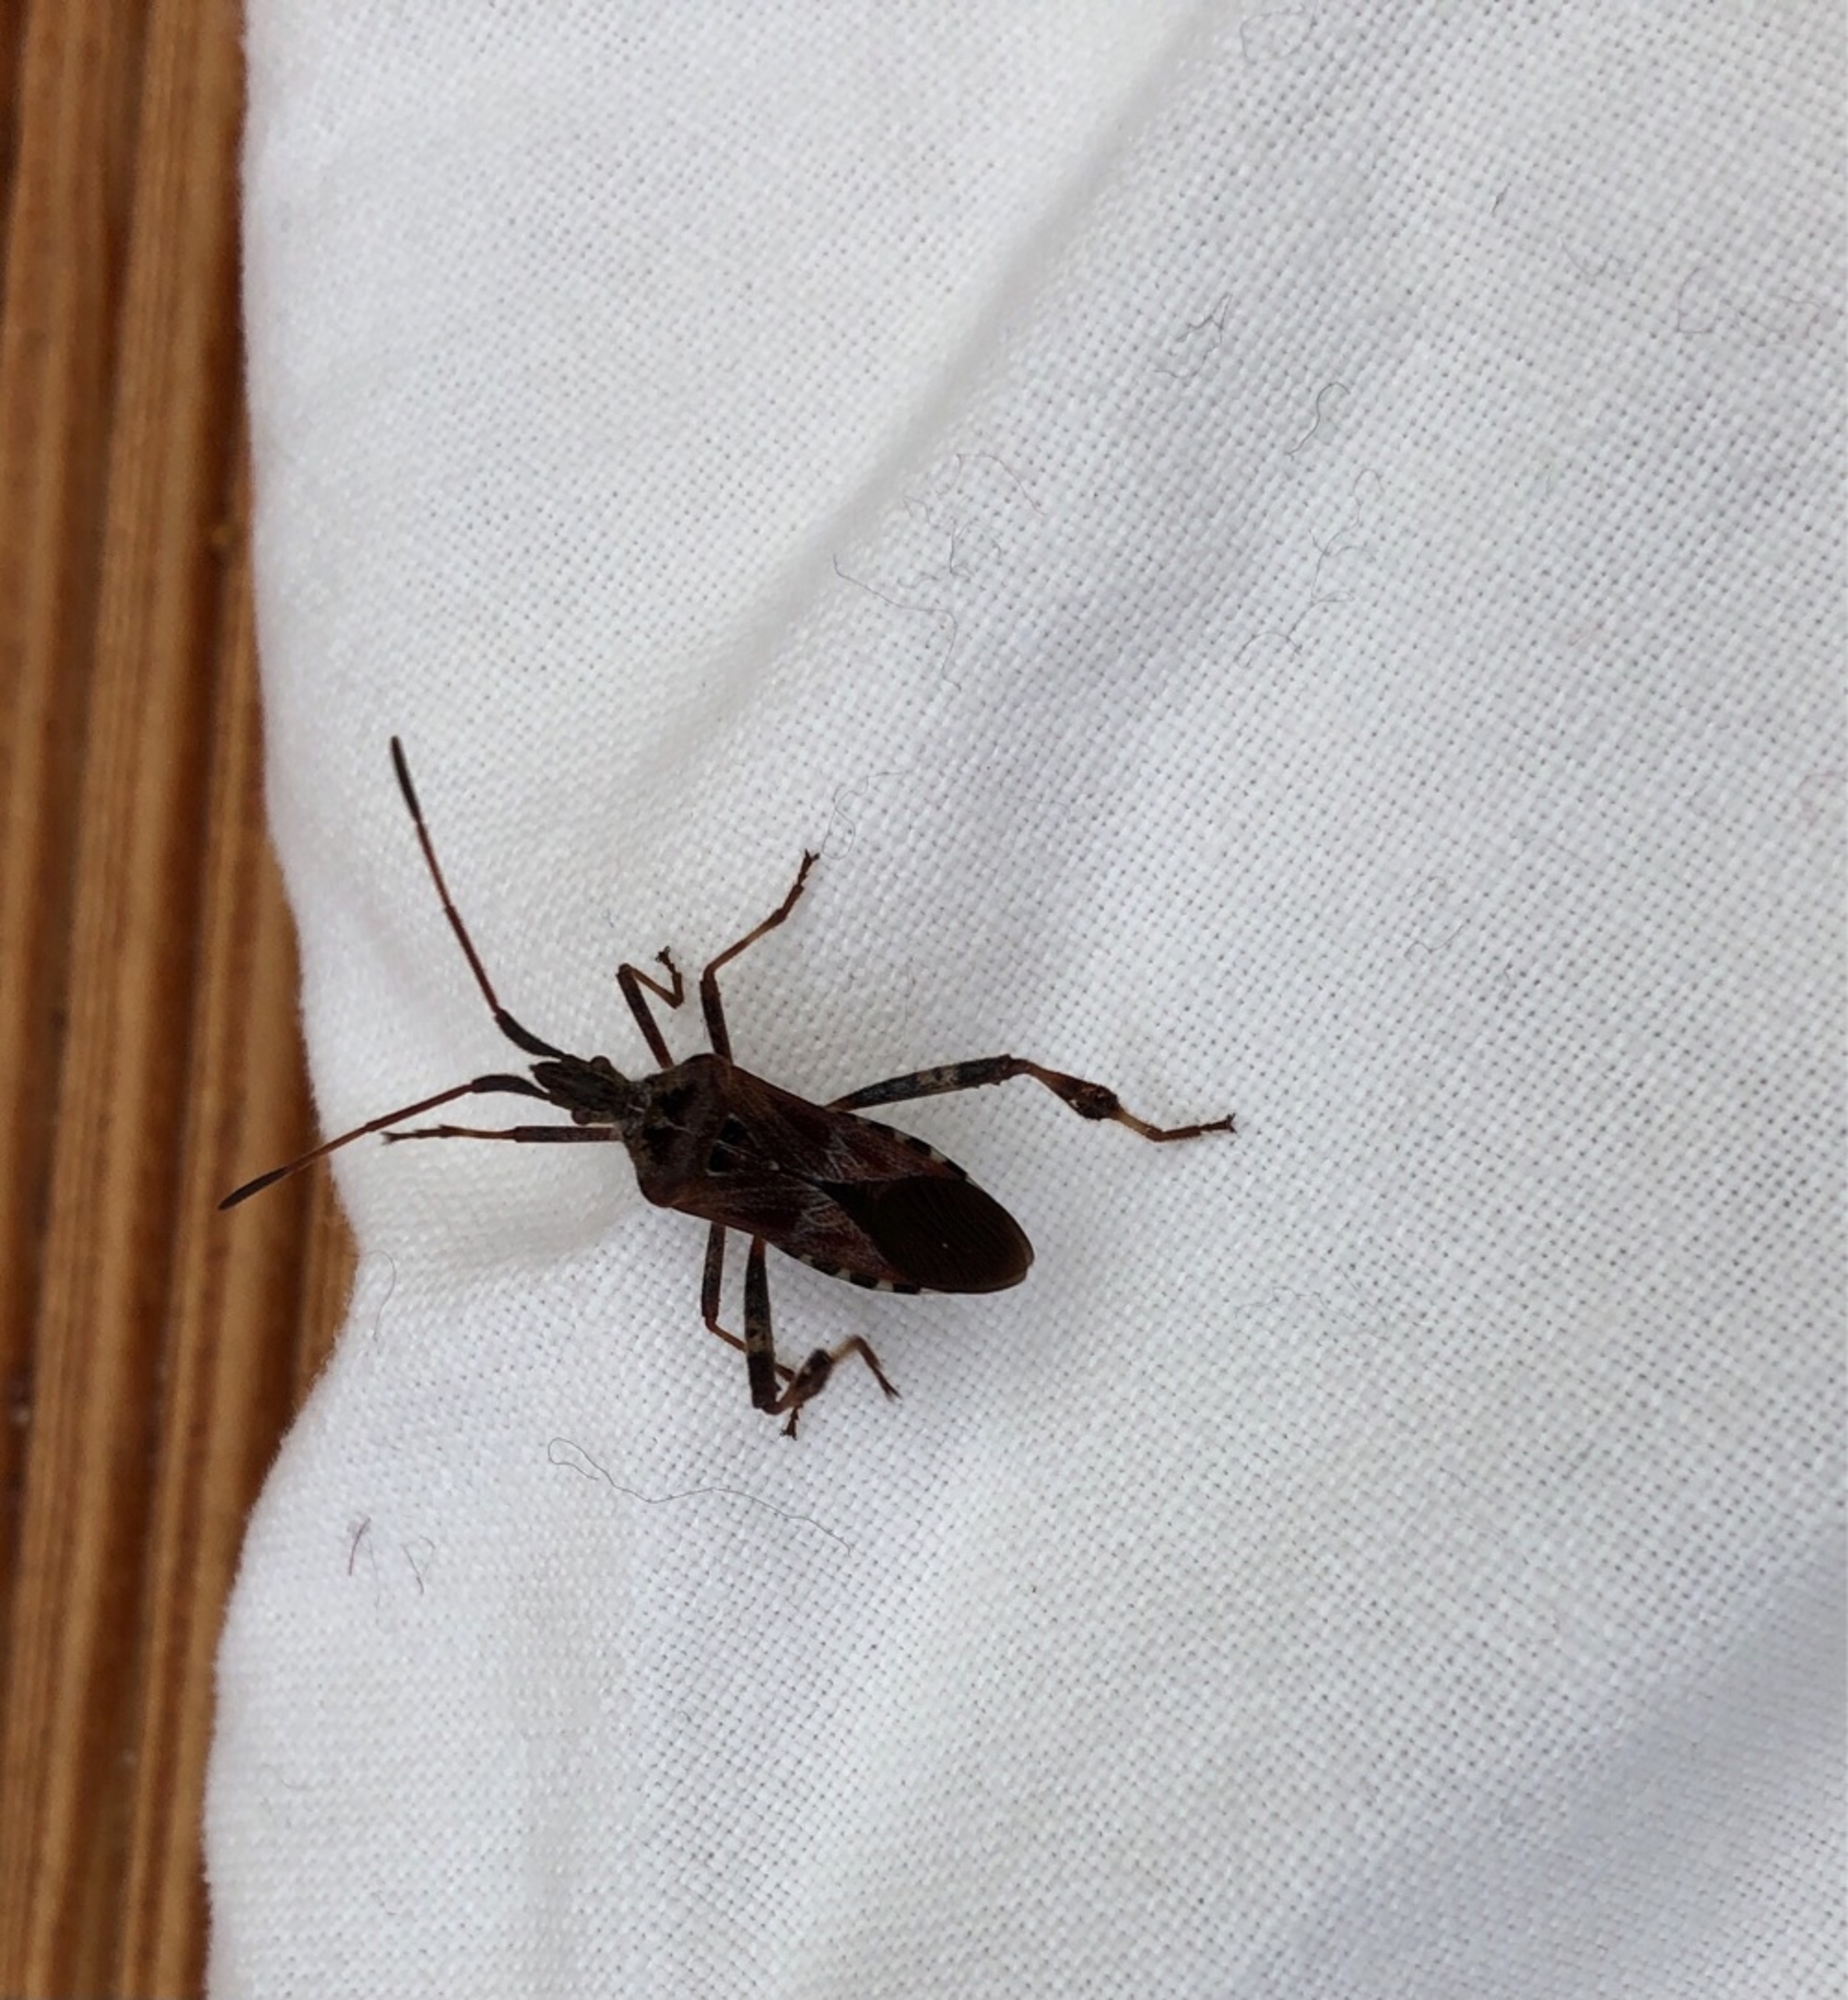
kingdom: Animalia
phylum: Arthropoda
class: Insecta
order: Hemiptera
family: Coreidae
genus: Leptoglossus
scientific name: Leptoglossus occidentalis
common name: Amerikansk fyrretæge
